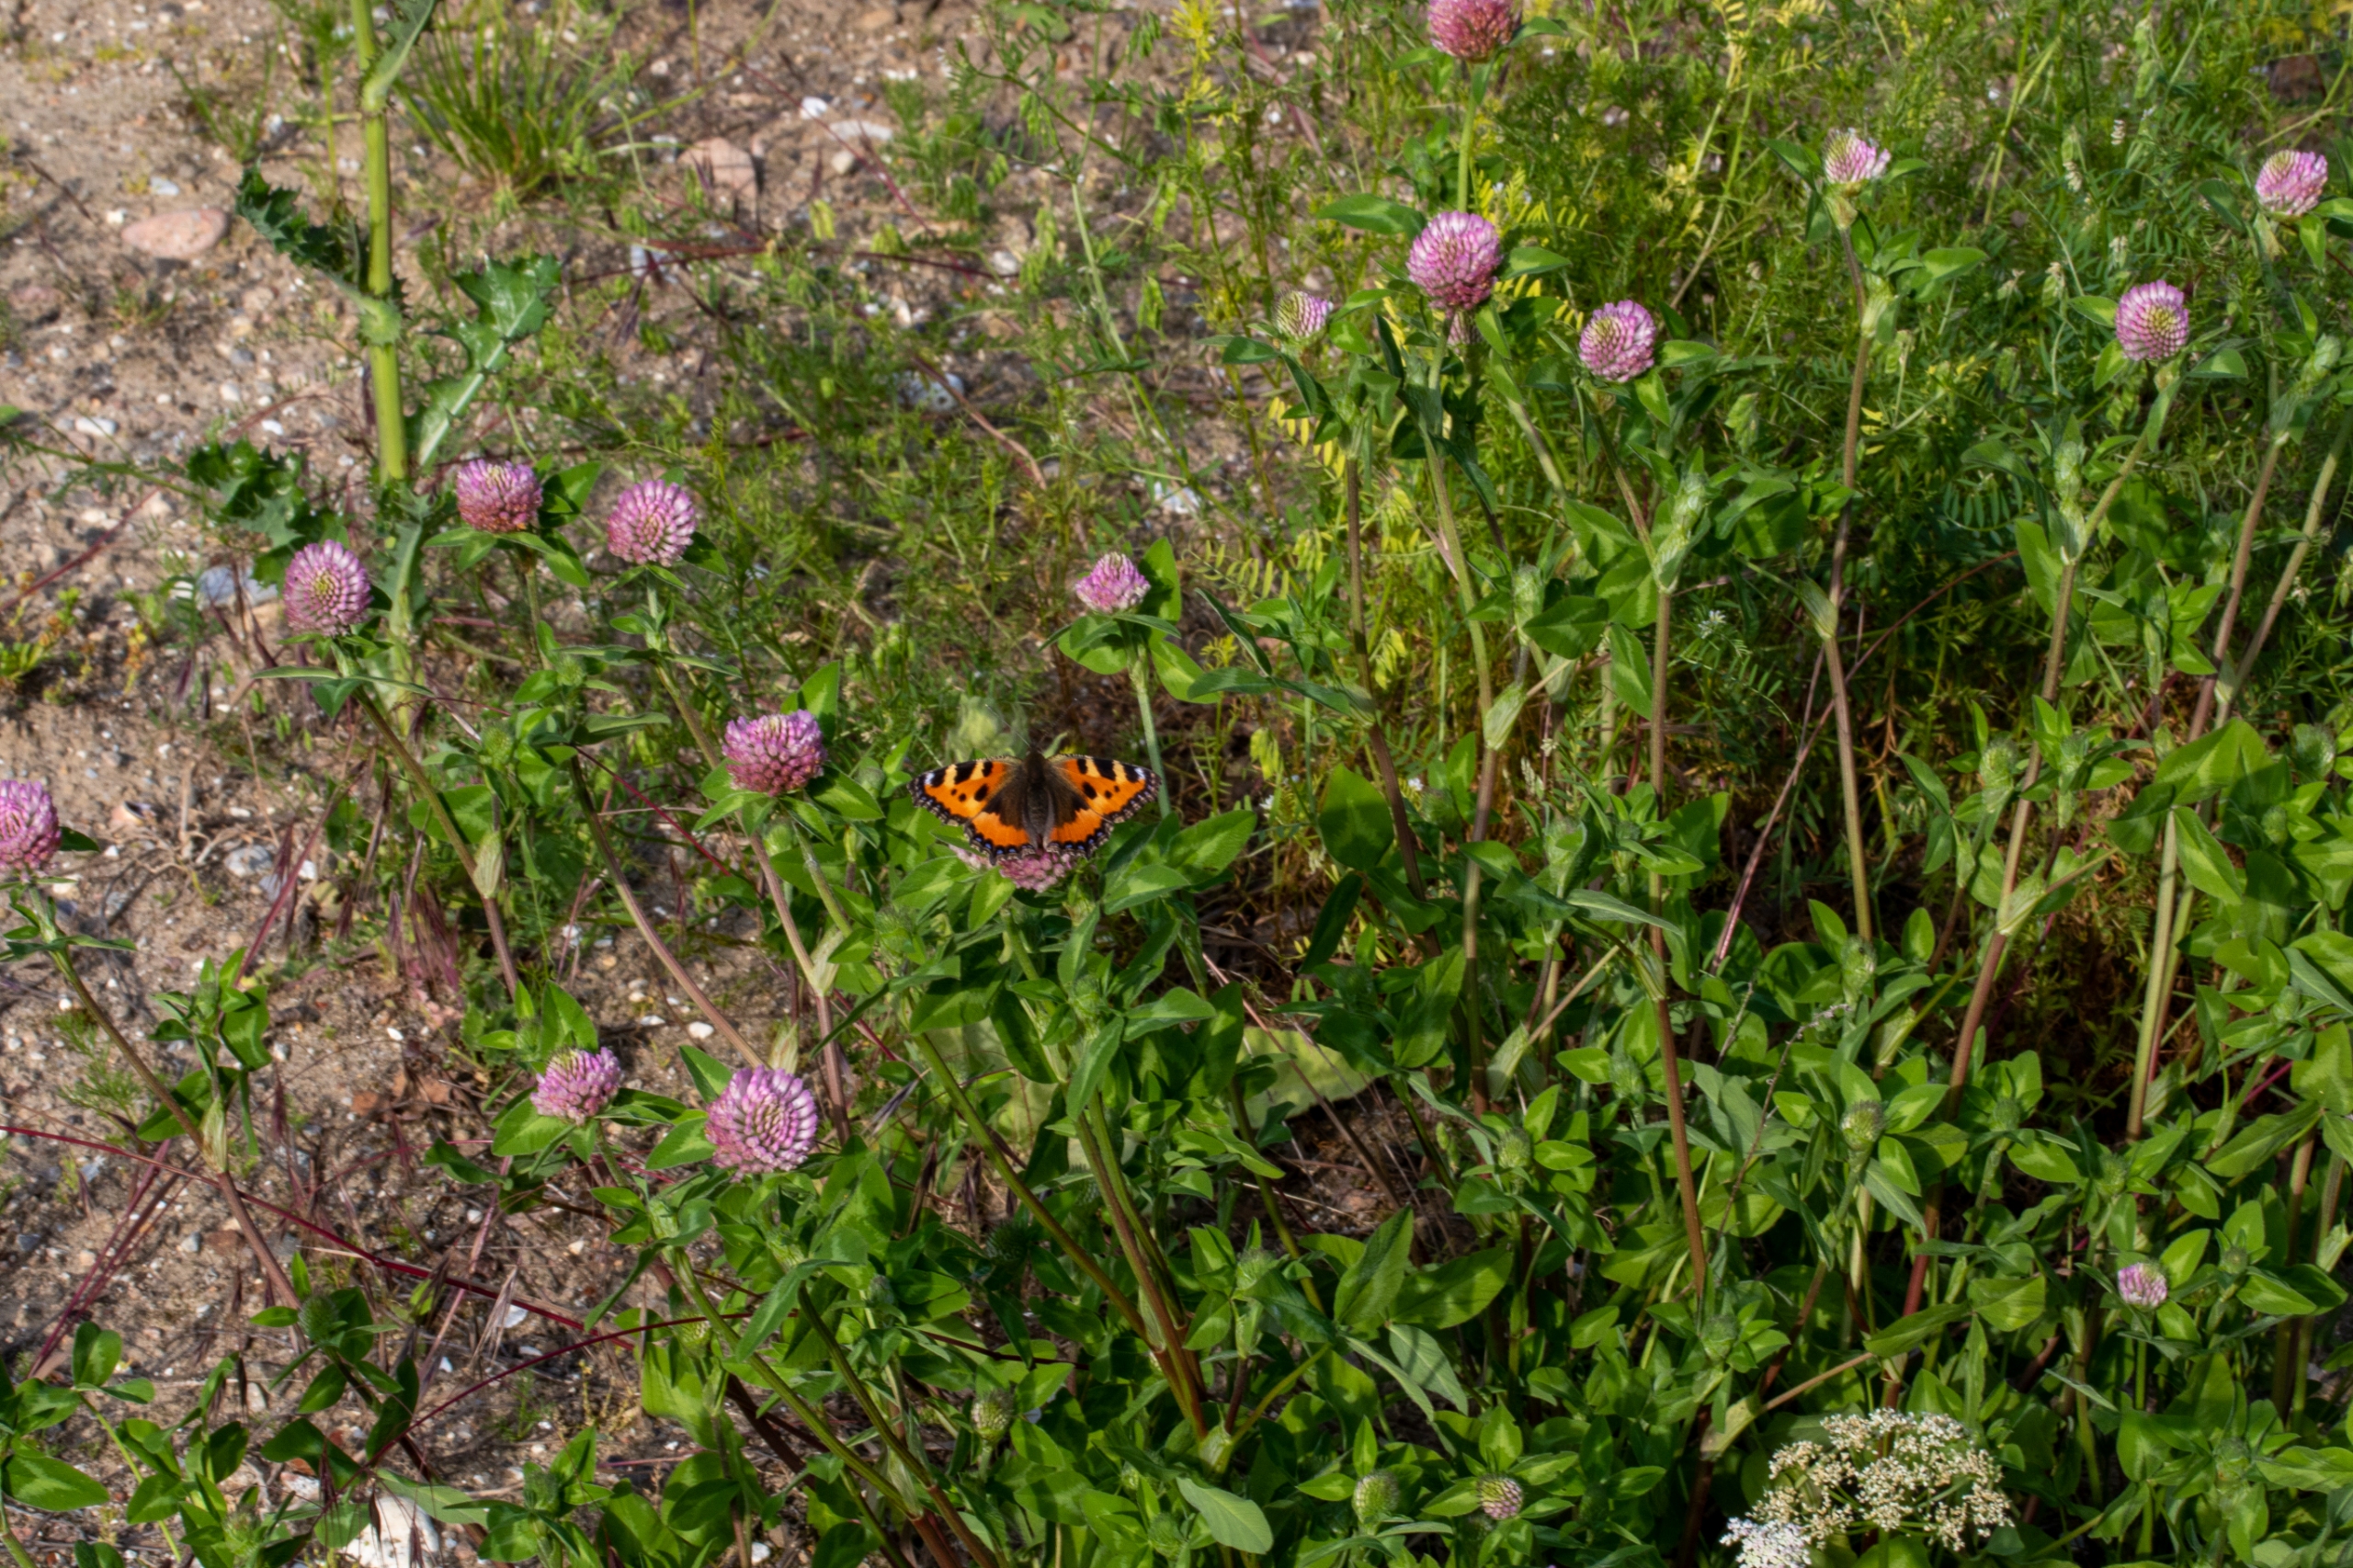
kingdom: Plantae
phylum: Tracheophyta
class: Magnoliopsida
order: Fabales
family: Fabaceae
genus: Trifolium
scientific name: Trifolium pratense
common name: Rød-kløver
